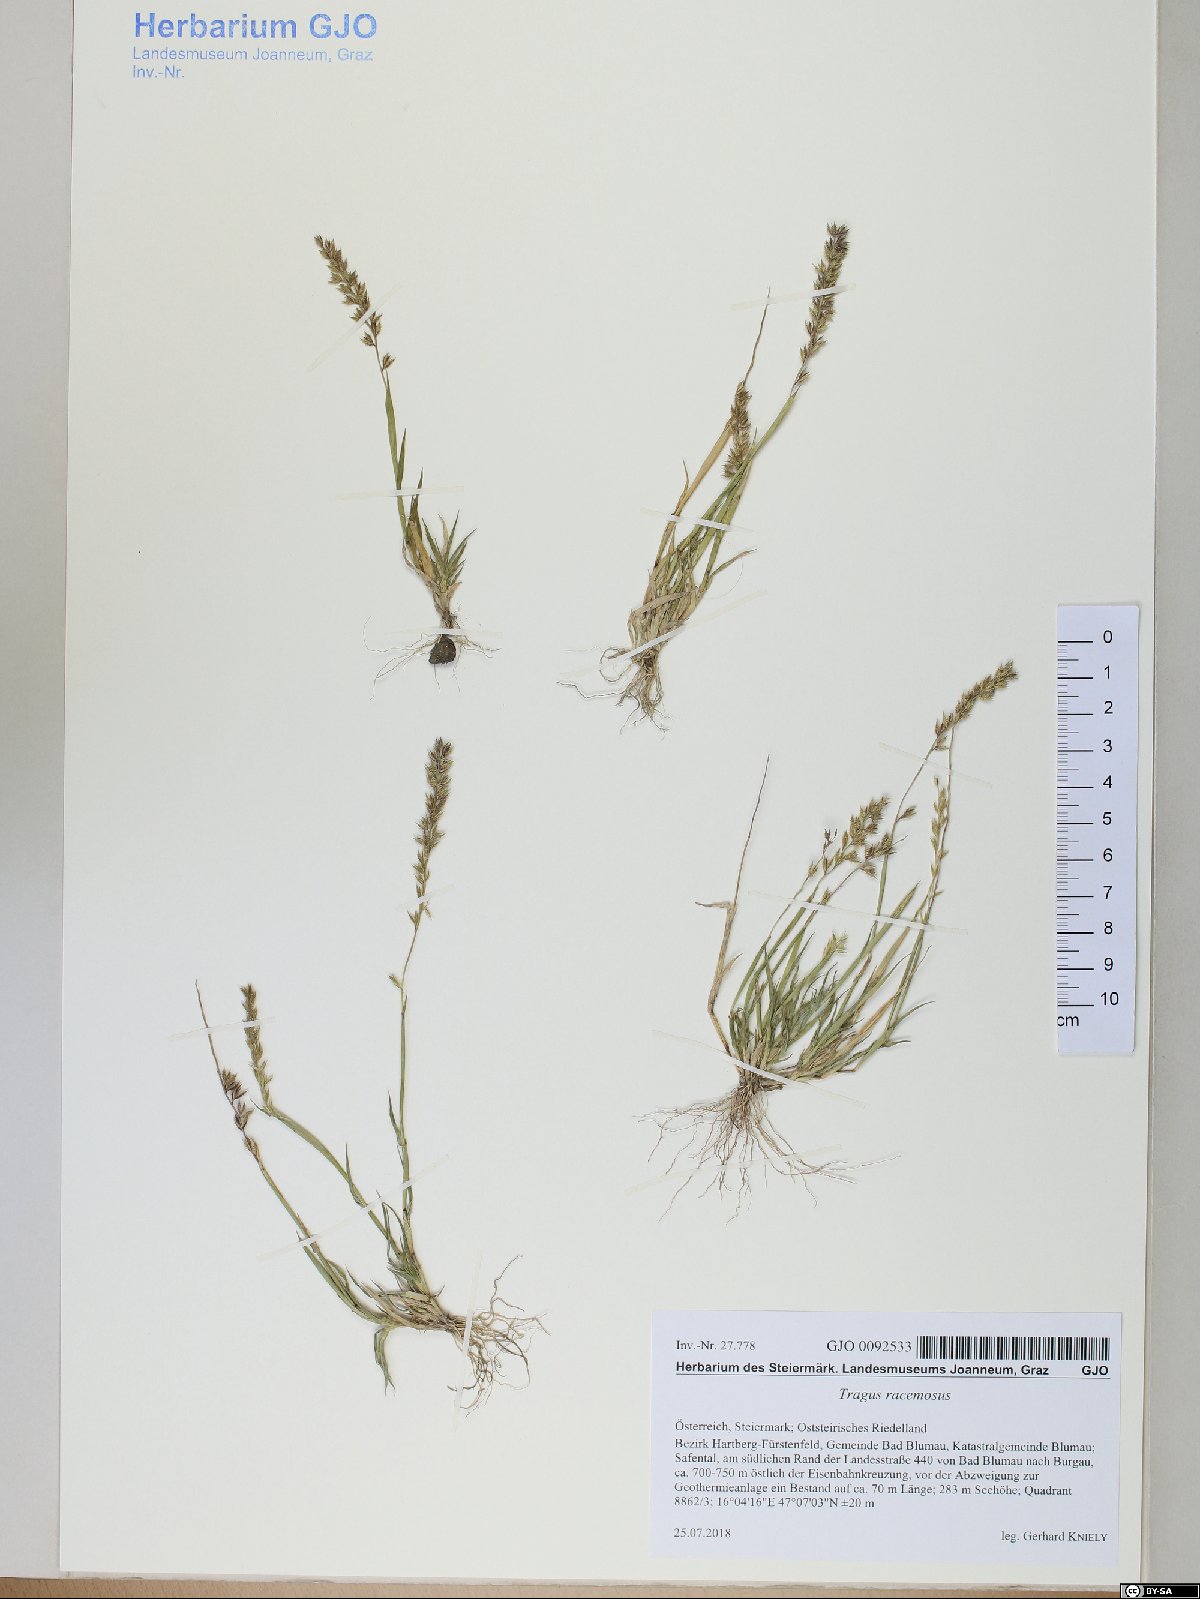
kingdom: Plantae
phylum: Tracheophyta
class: Liliopsida
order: Poales
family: Poaceae
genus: Tragus
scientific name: Tragus racemosus
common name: European bur-grass
